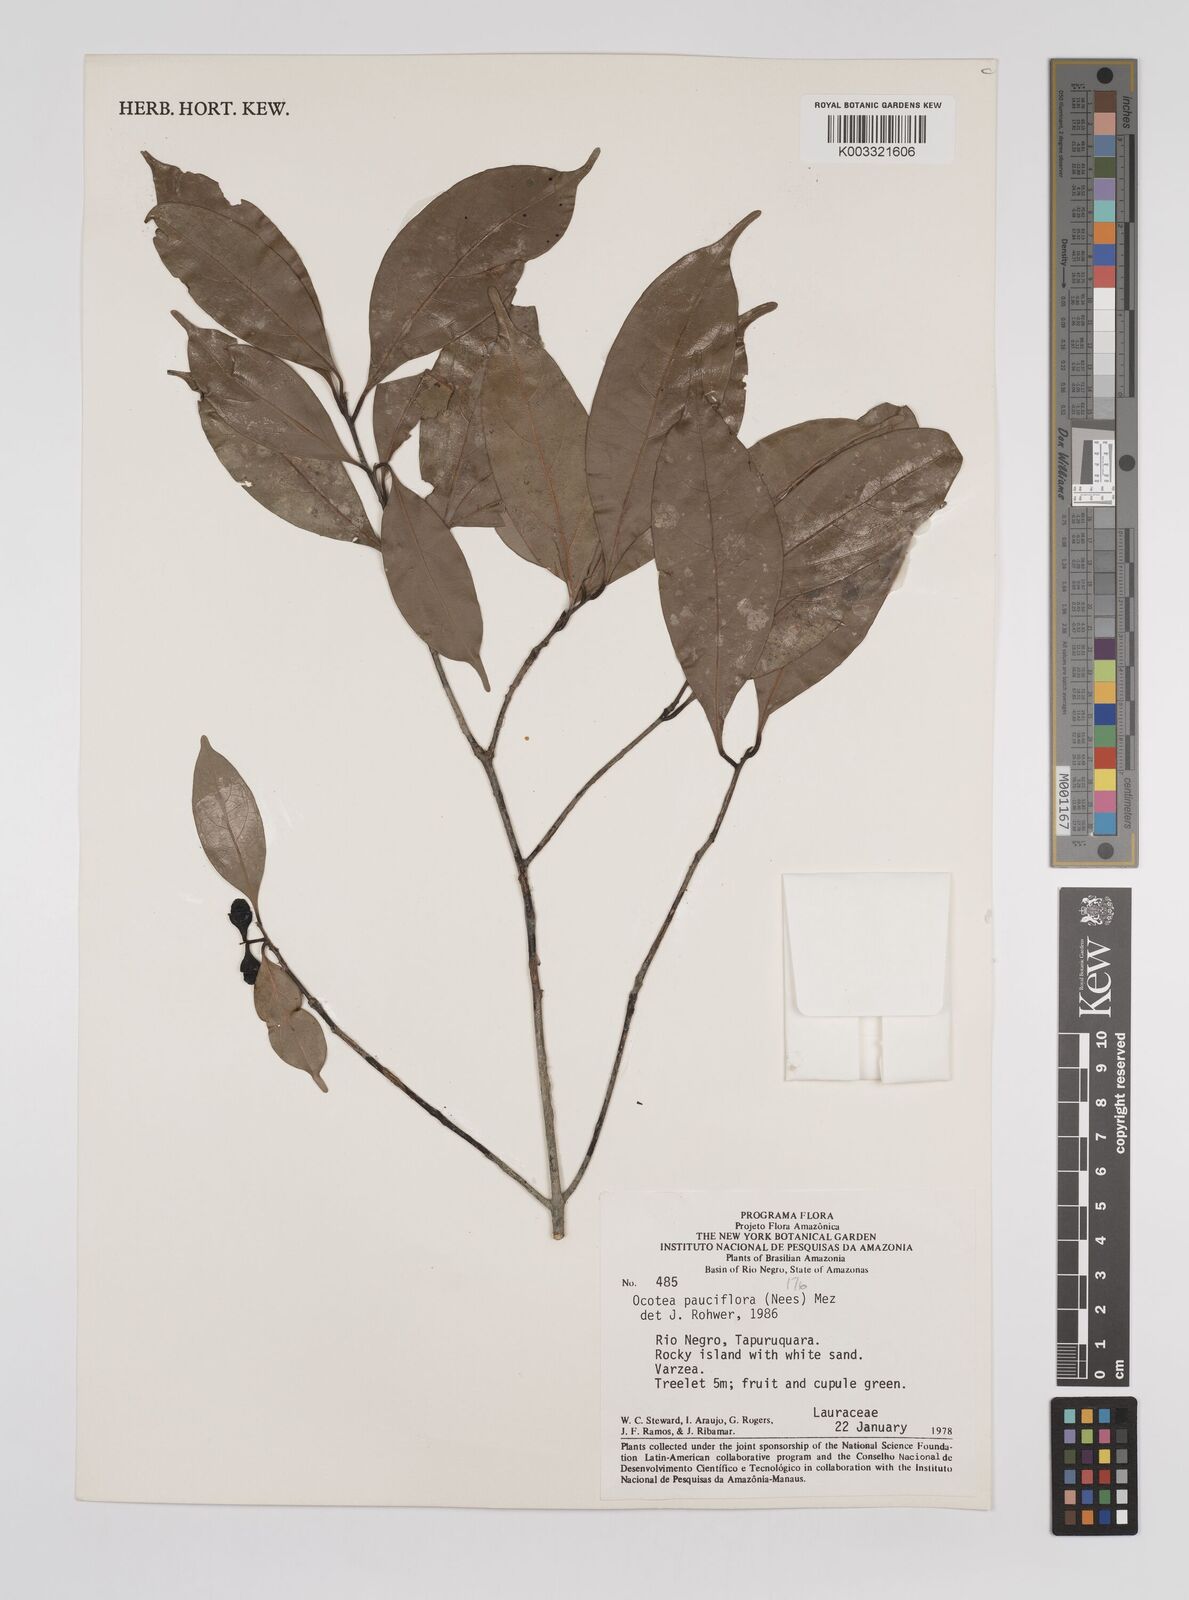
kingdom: Plantae
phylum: Tracheophyta
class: Magnoliopsida
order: Laurales
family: Lauraceae
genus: Ocotea
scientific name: Ocotea pauciflora
